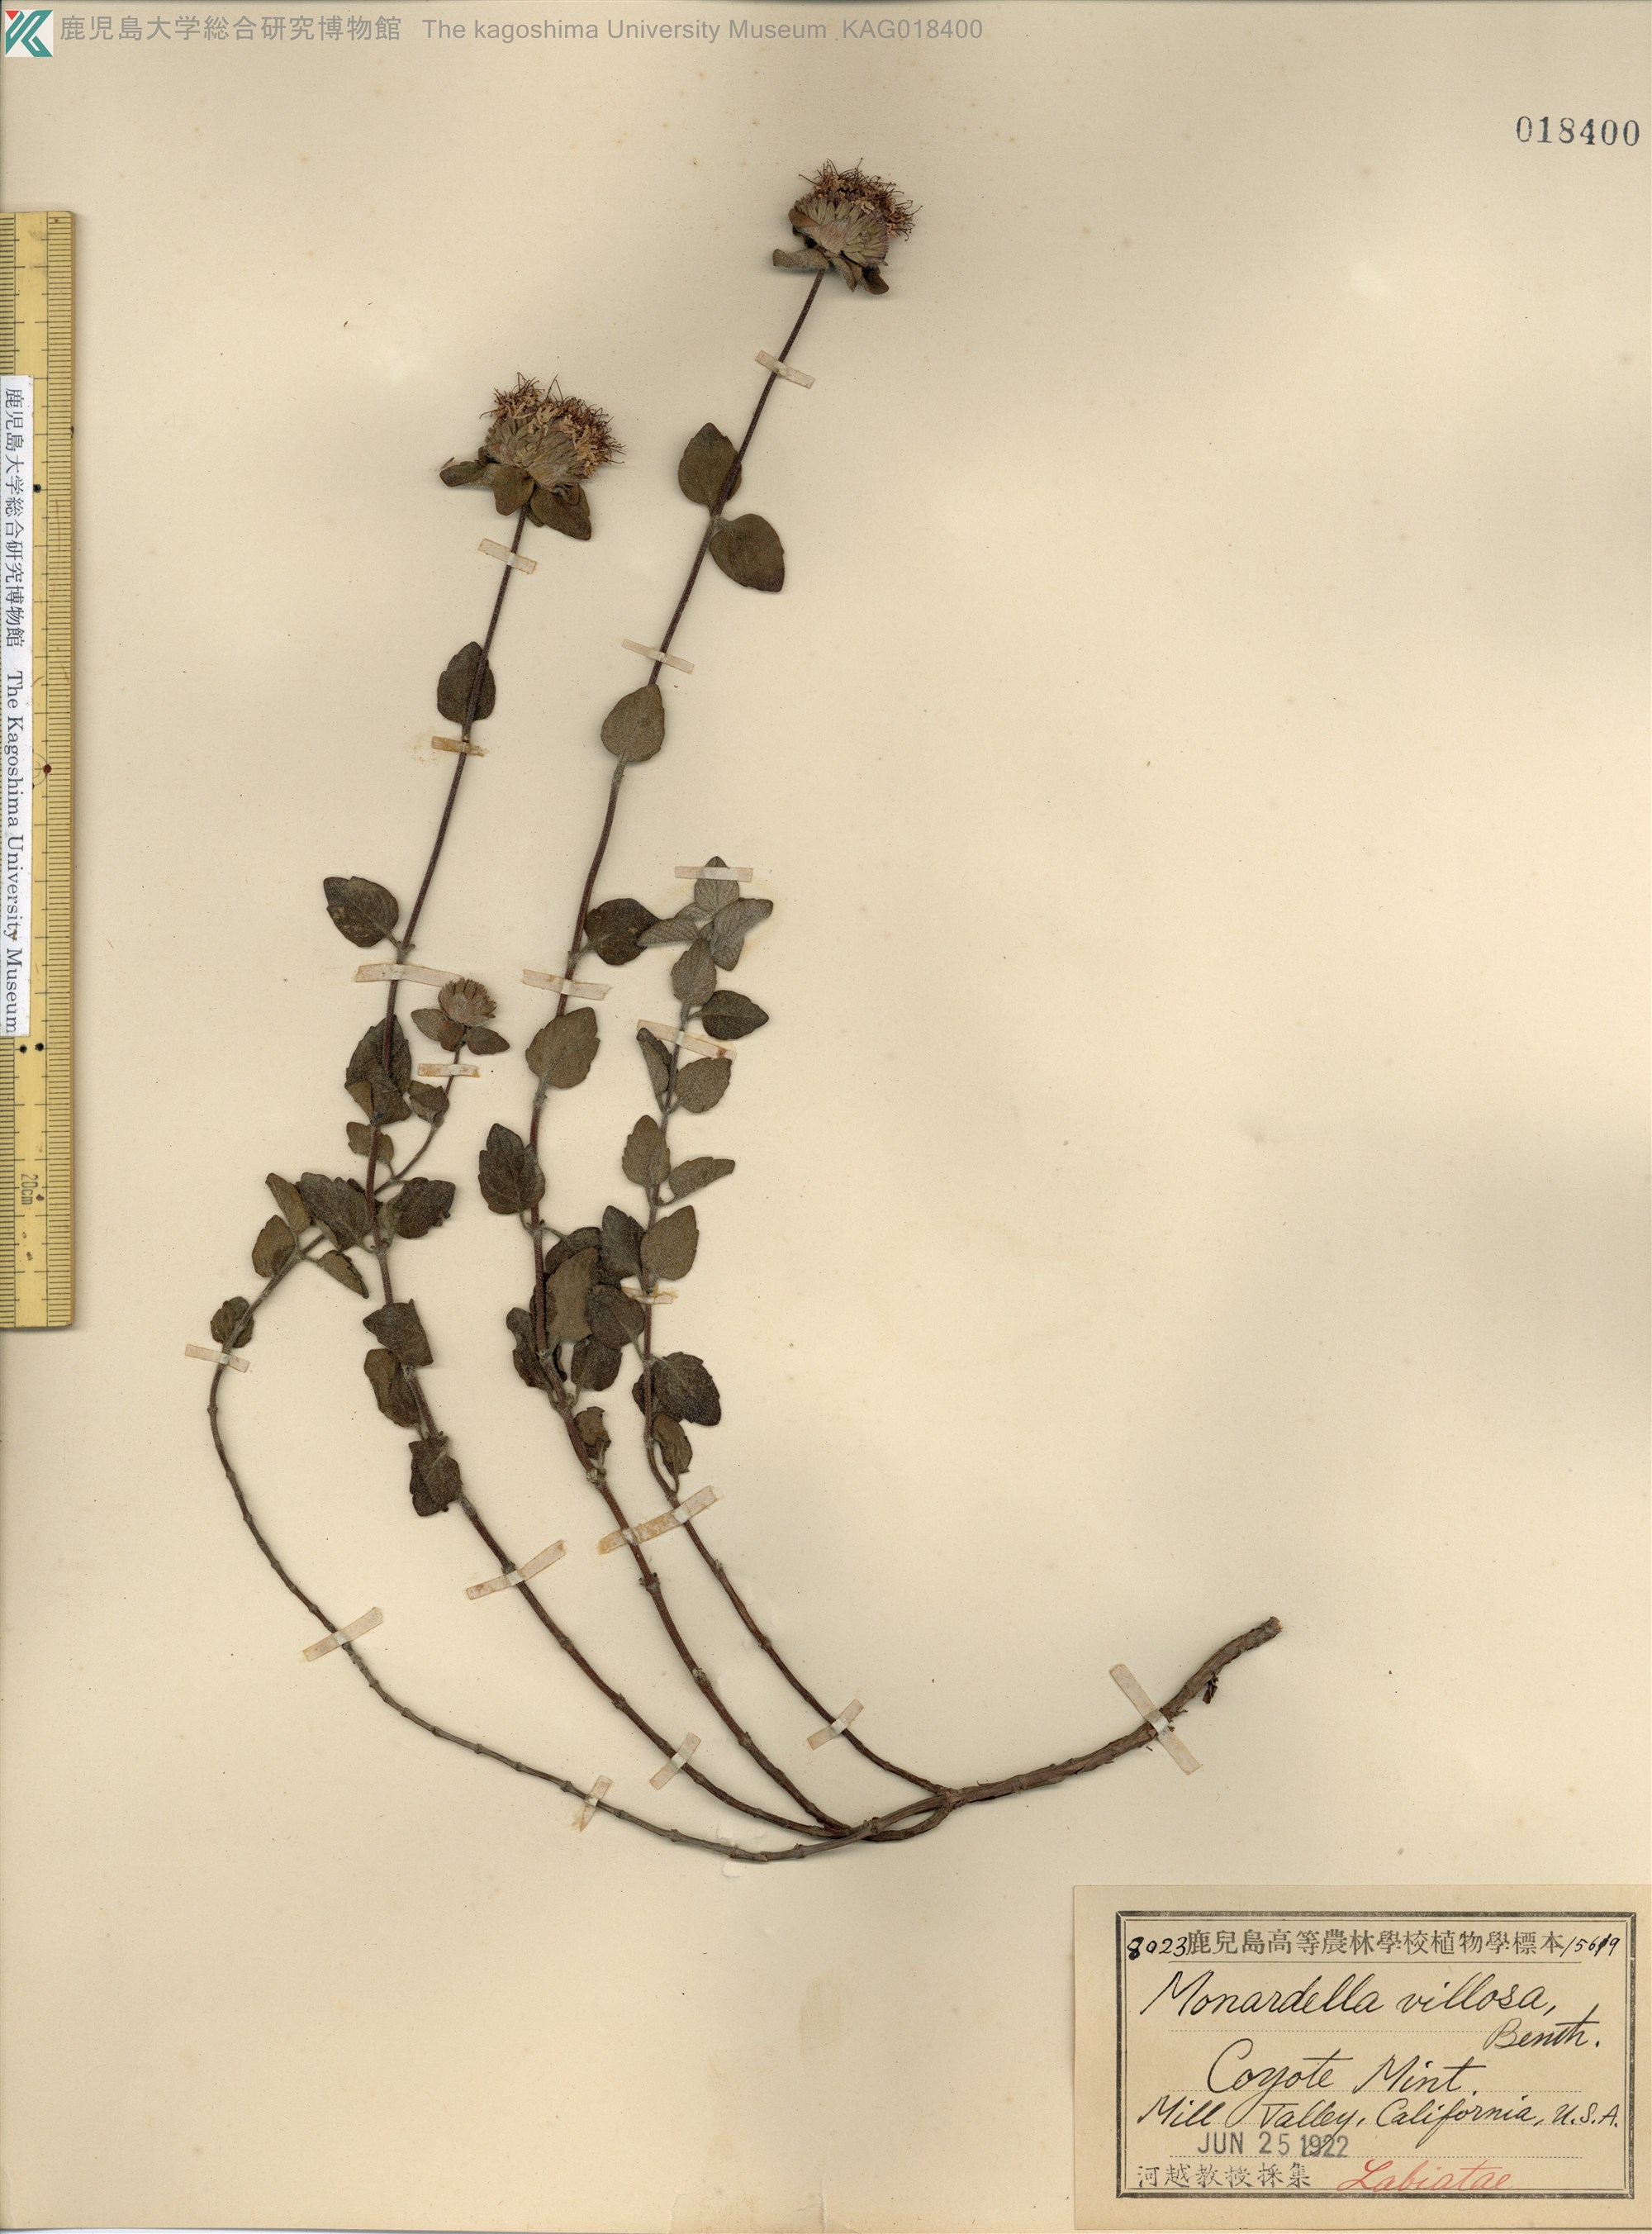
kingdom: Plantae
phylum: Tracheophyta
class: Magnoliopsida
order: Lamiales
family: Lamiaceae
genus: Monardella
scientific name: Monardella odoratissima
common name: Pacific monardella
